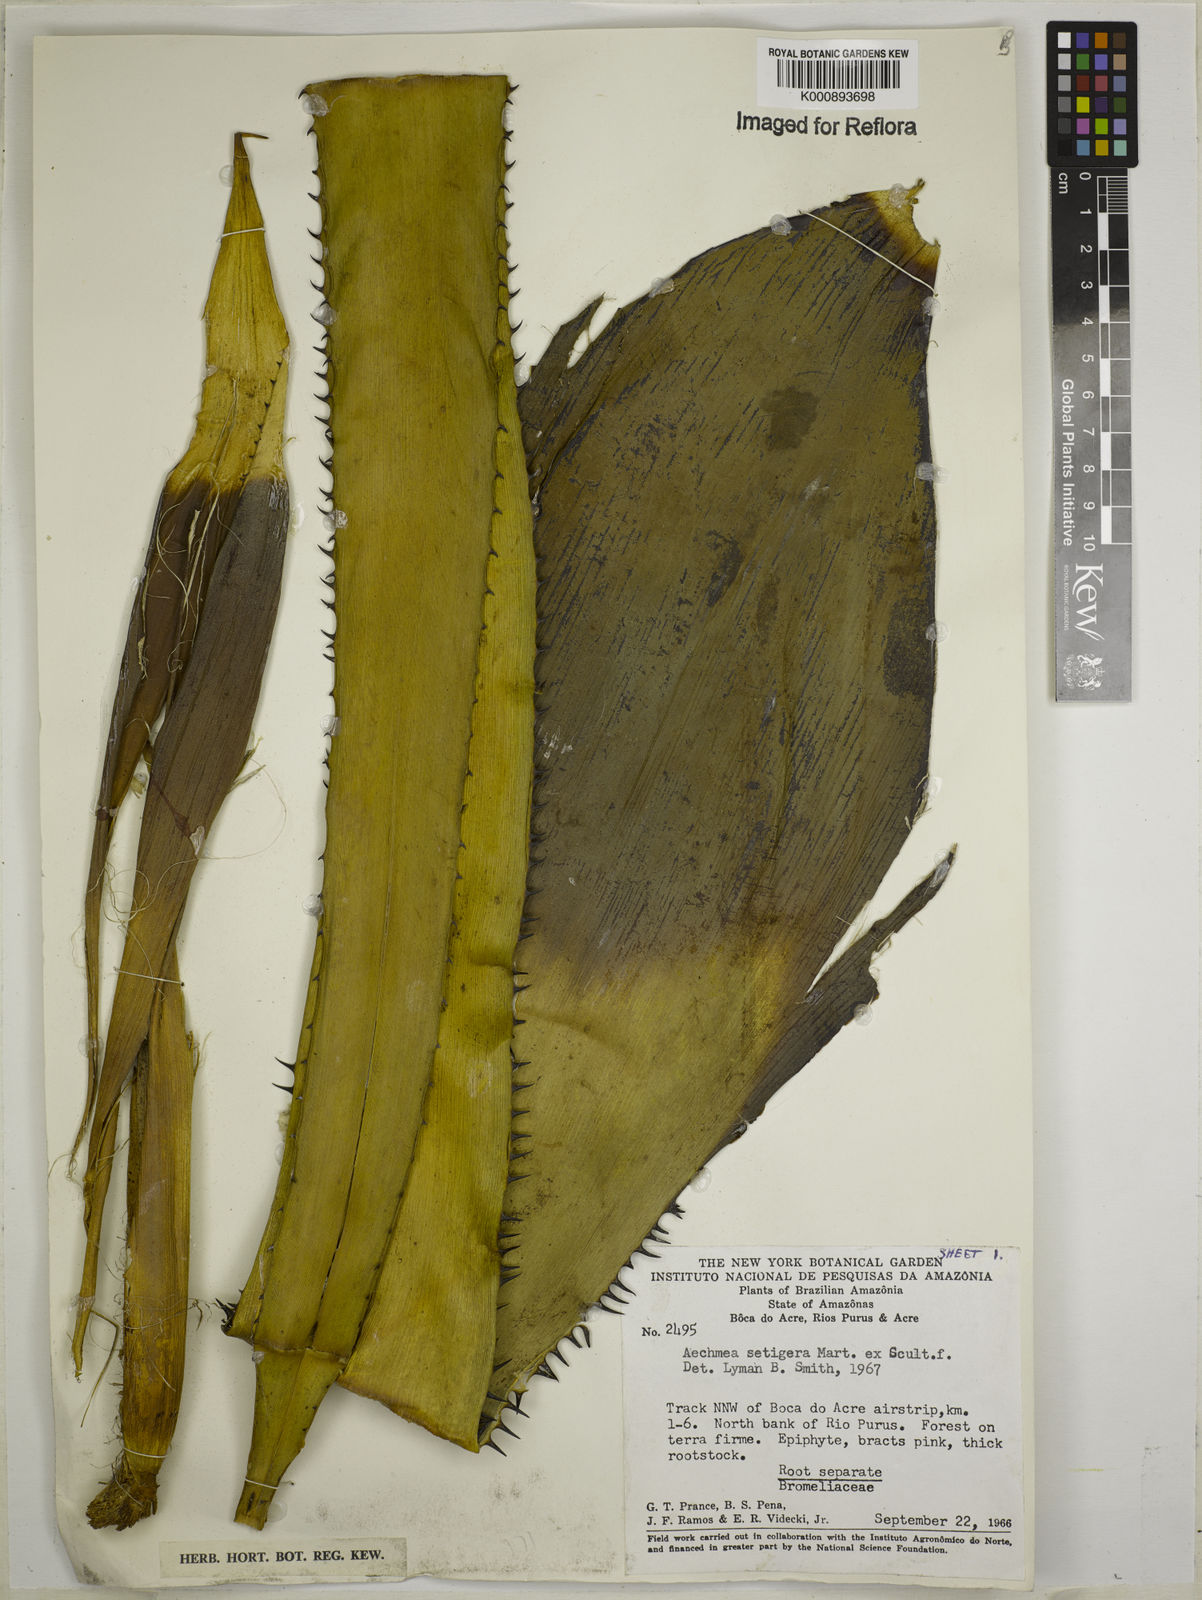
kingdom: Plantae
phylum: Tracheophyta
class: Liliopsida
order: Poales
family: Bromeliaceae
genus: Aechmea
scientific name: Aechmea setigera
